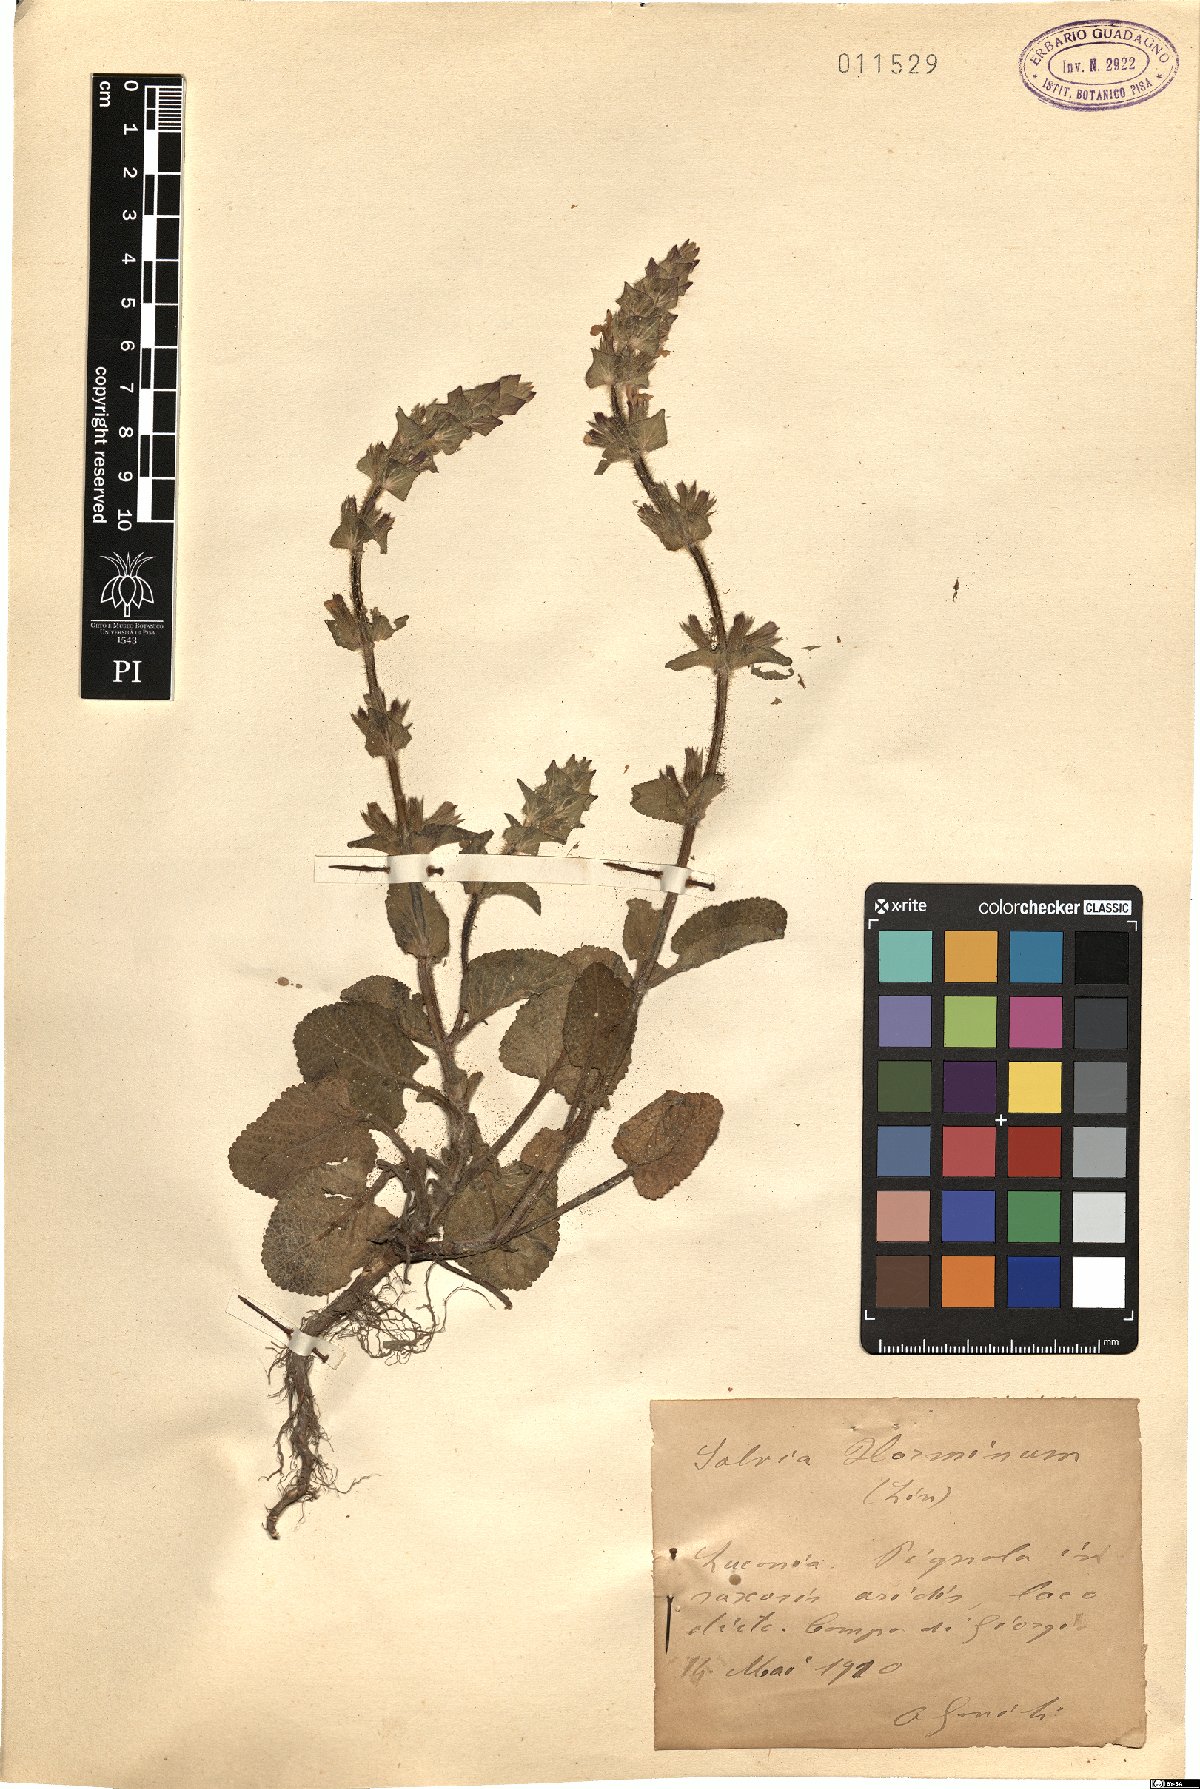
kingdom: Plantae
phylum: Tracheophyta
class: Magnoliopsida
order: Lamiales
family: Lamiaceae
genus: Salvia
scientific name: Salvia viridis
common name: Annual clary
